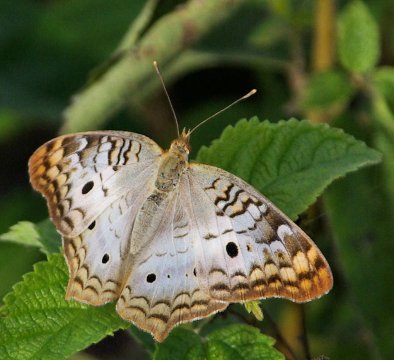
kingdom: Animalia
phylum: Arthropoda
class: Insecta
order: Lepidoptera
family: Nymphalidae
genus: Anartia
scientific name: Anartia jatrophae
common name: White Peacock
